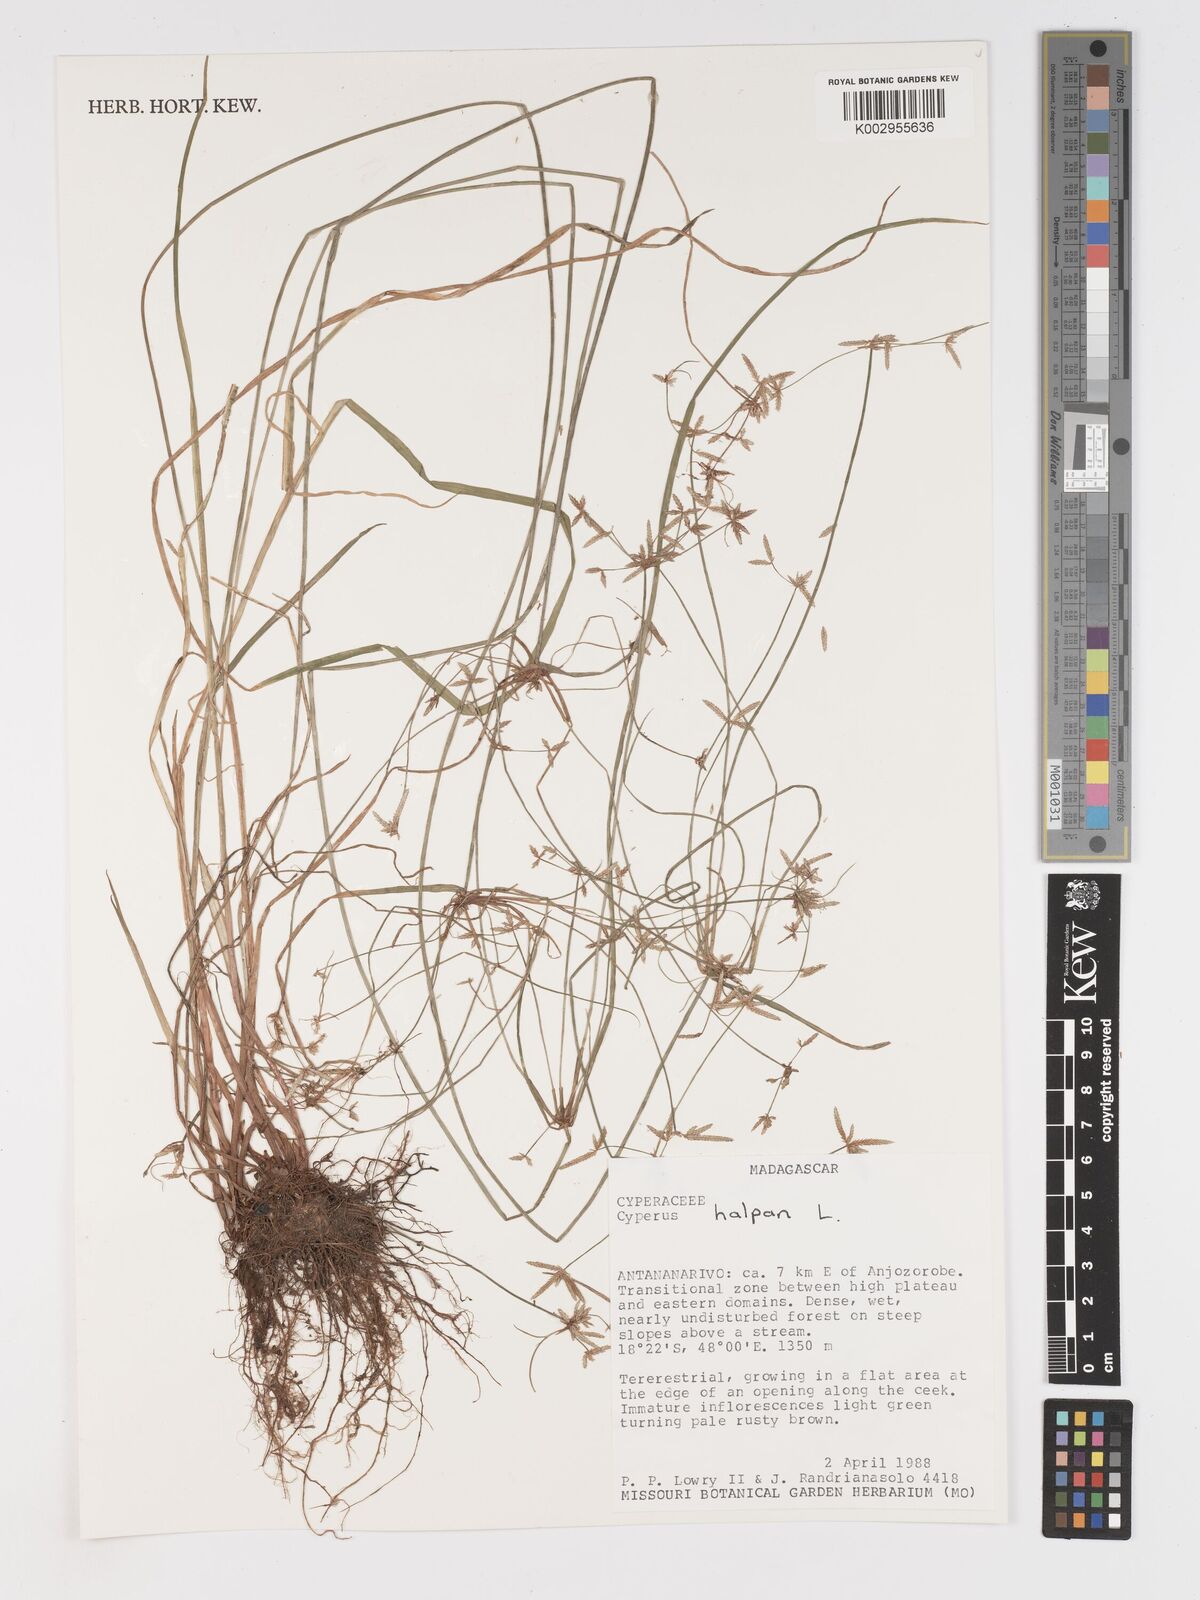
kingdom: Plantae
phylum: Tracheophyta
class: Liliopsida
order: Poales
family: Cyperaceae
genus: Cyperus
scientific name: Cyperus haspan
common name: Haspan flatsedge
